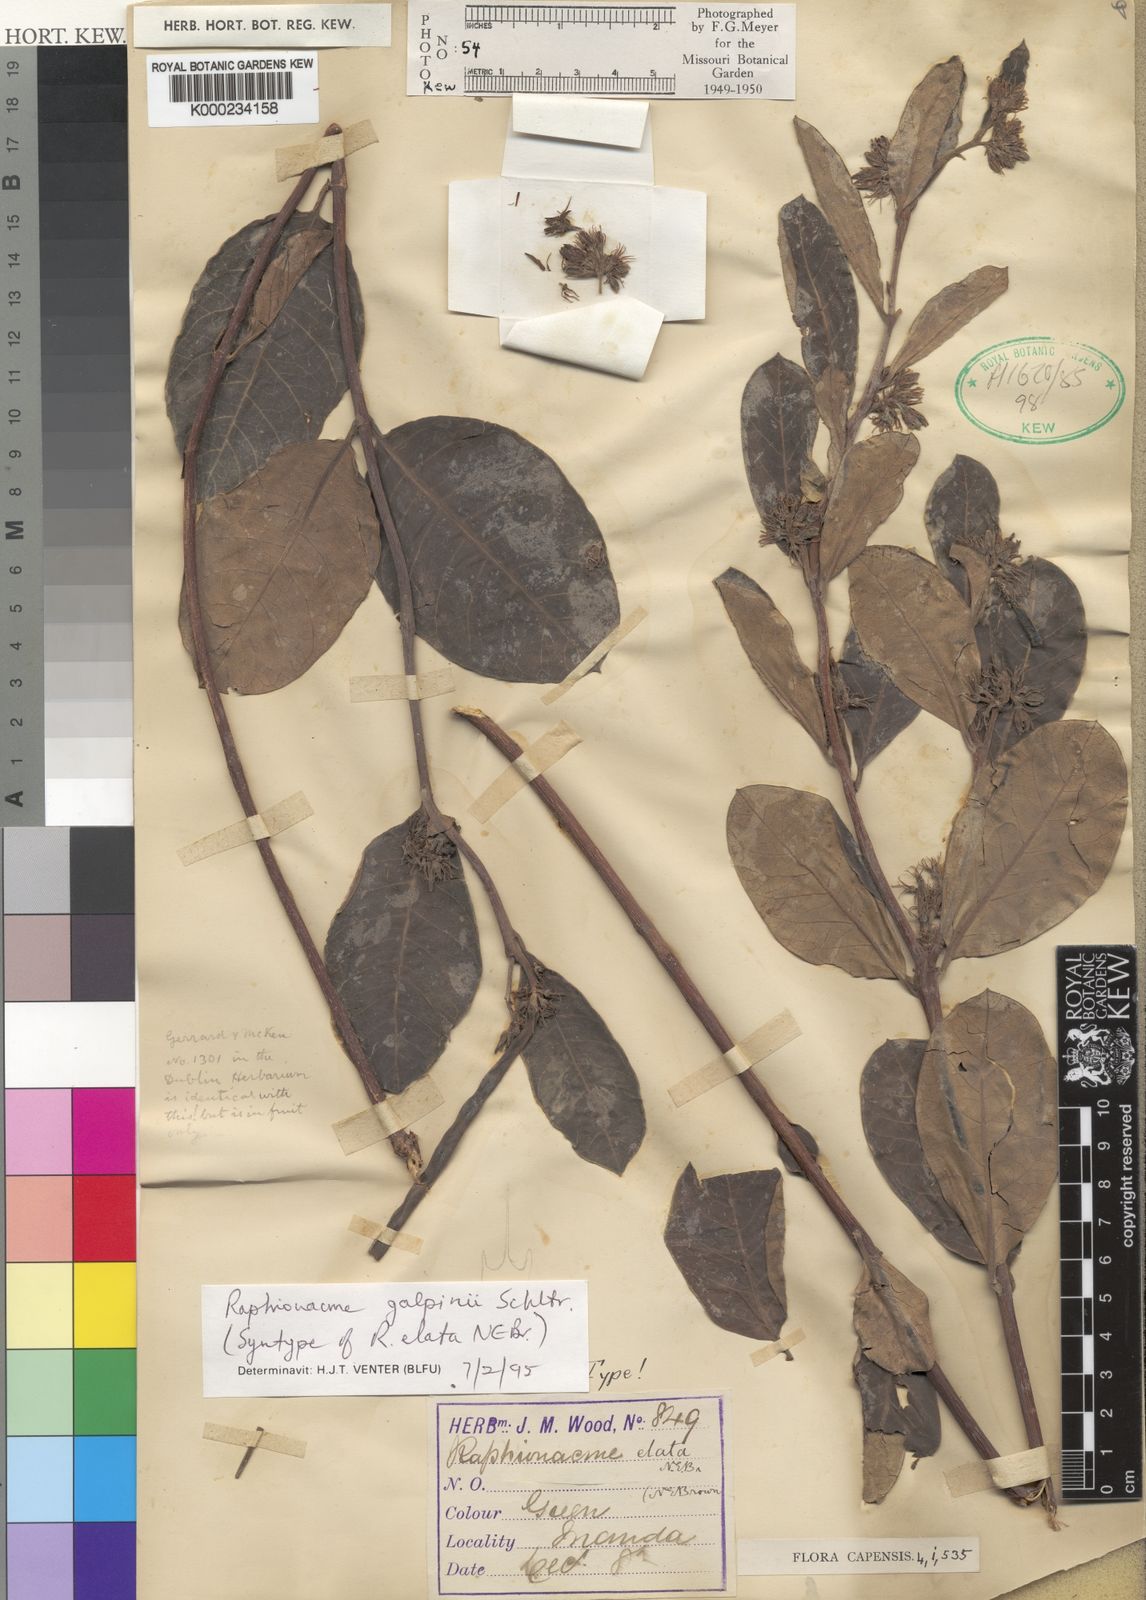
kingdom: Plantae
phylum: Tracheophyta
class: Magnoliopsida
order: Gentianales
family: Apocynaceae
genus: Raphionacme
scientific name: Raphionacme galpinii
